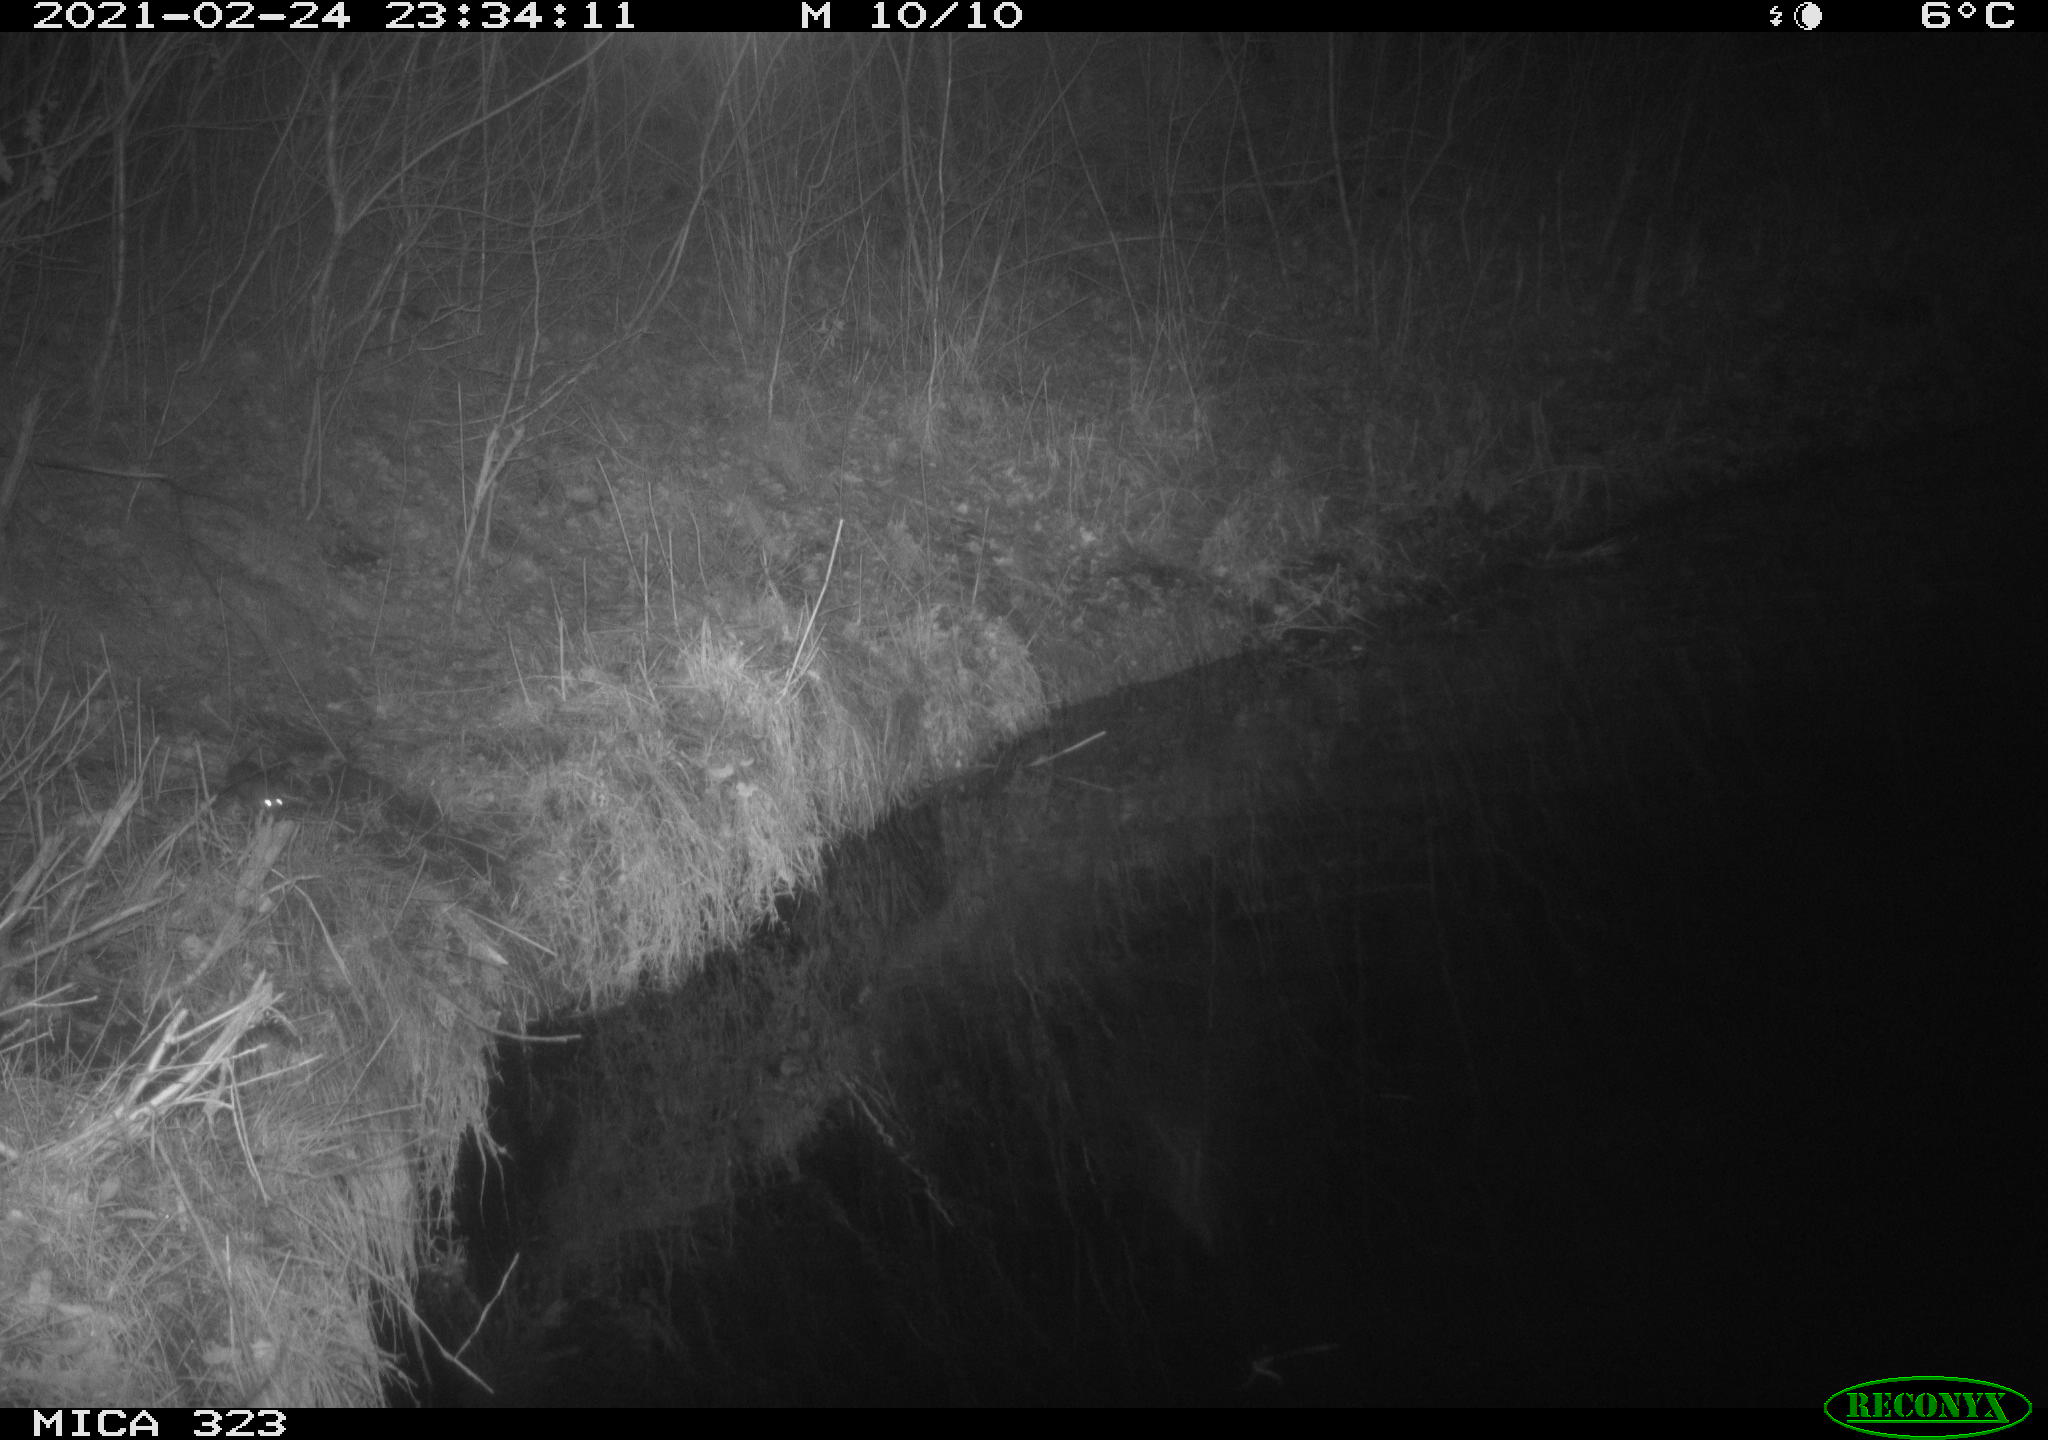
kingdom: Animalia
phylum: Chordata
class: Mammalia
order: Rodentia
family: Muridae
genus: Rattus
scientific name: Rattus norvegicus
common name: Brown rat
